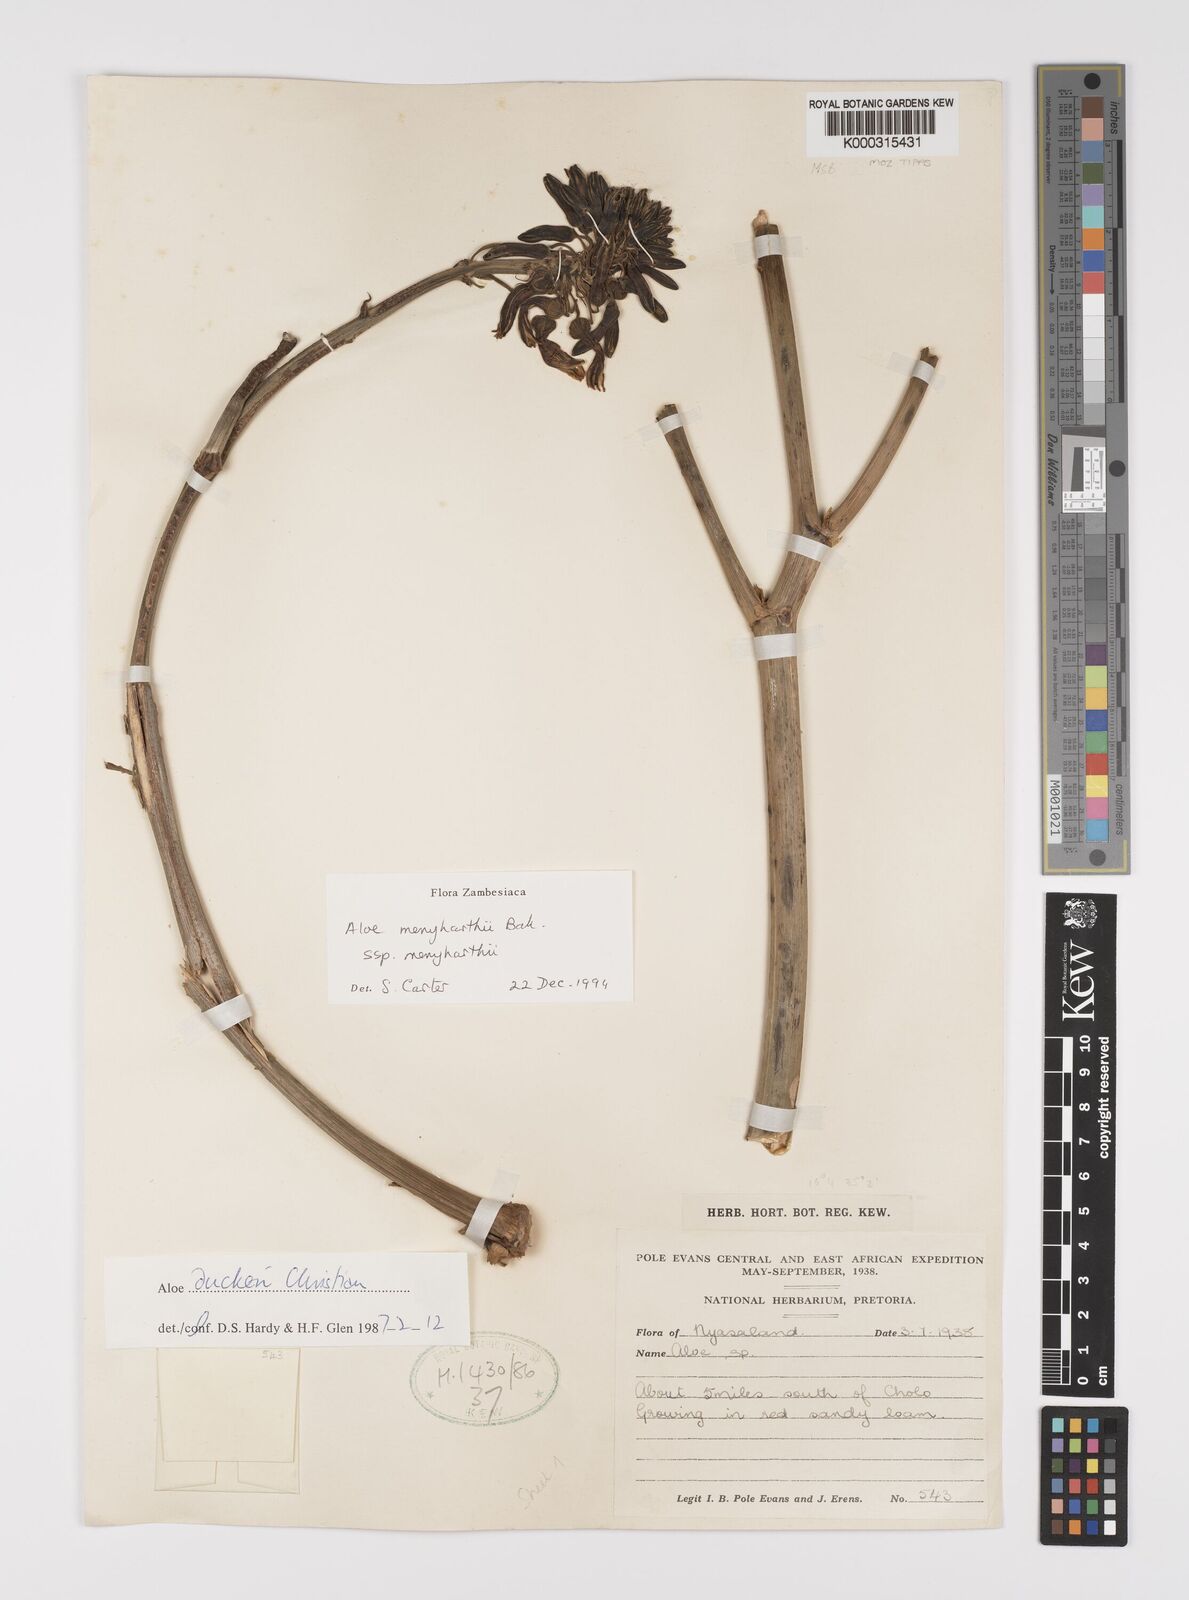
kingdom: Plantae
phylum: Tracheophyta
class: Liliopsida
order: Asparagales
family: Asphodelaceae
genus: Aloe
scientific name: Aloe menyharthii
